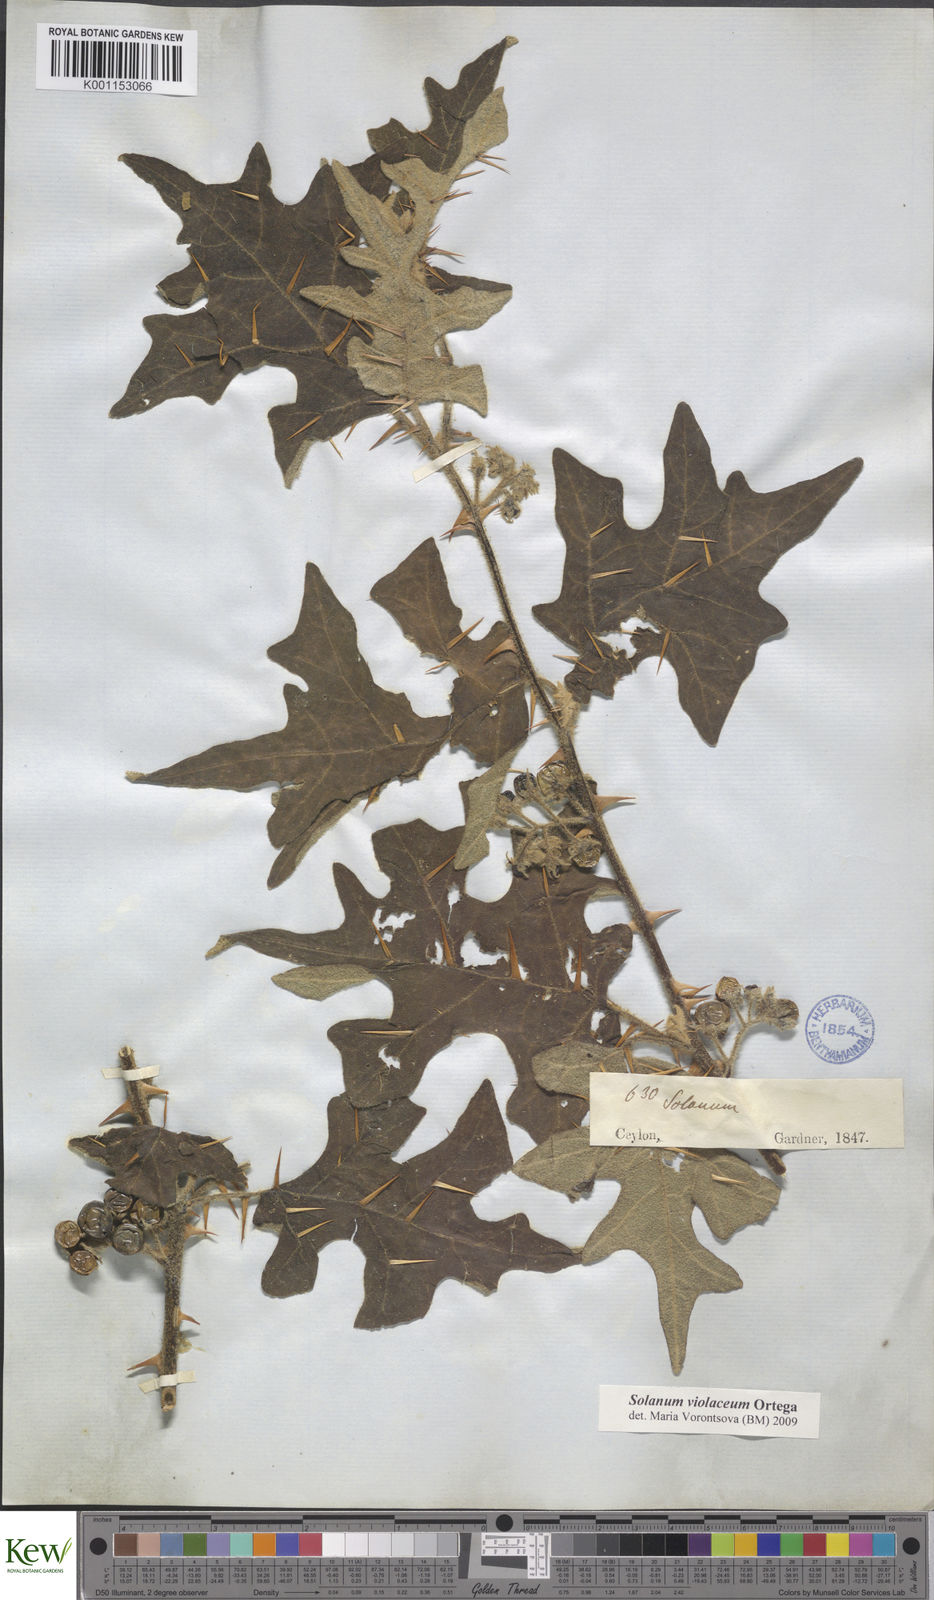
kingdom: Plantae
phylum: Tracheophyta
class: Magnoliopsida
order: Solanales
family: Solanaceae
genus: Solanum
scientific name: Solanum violaceum
